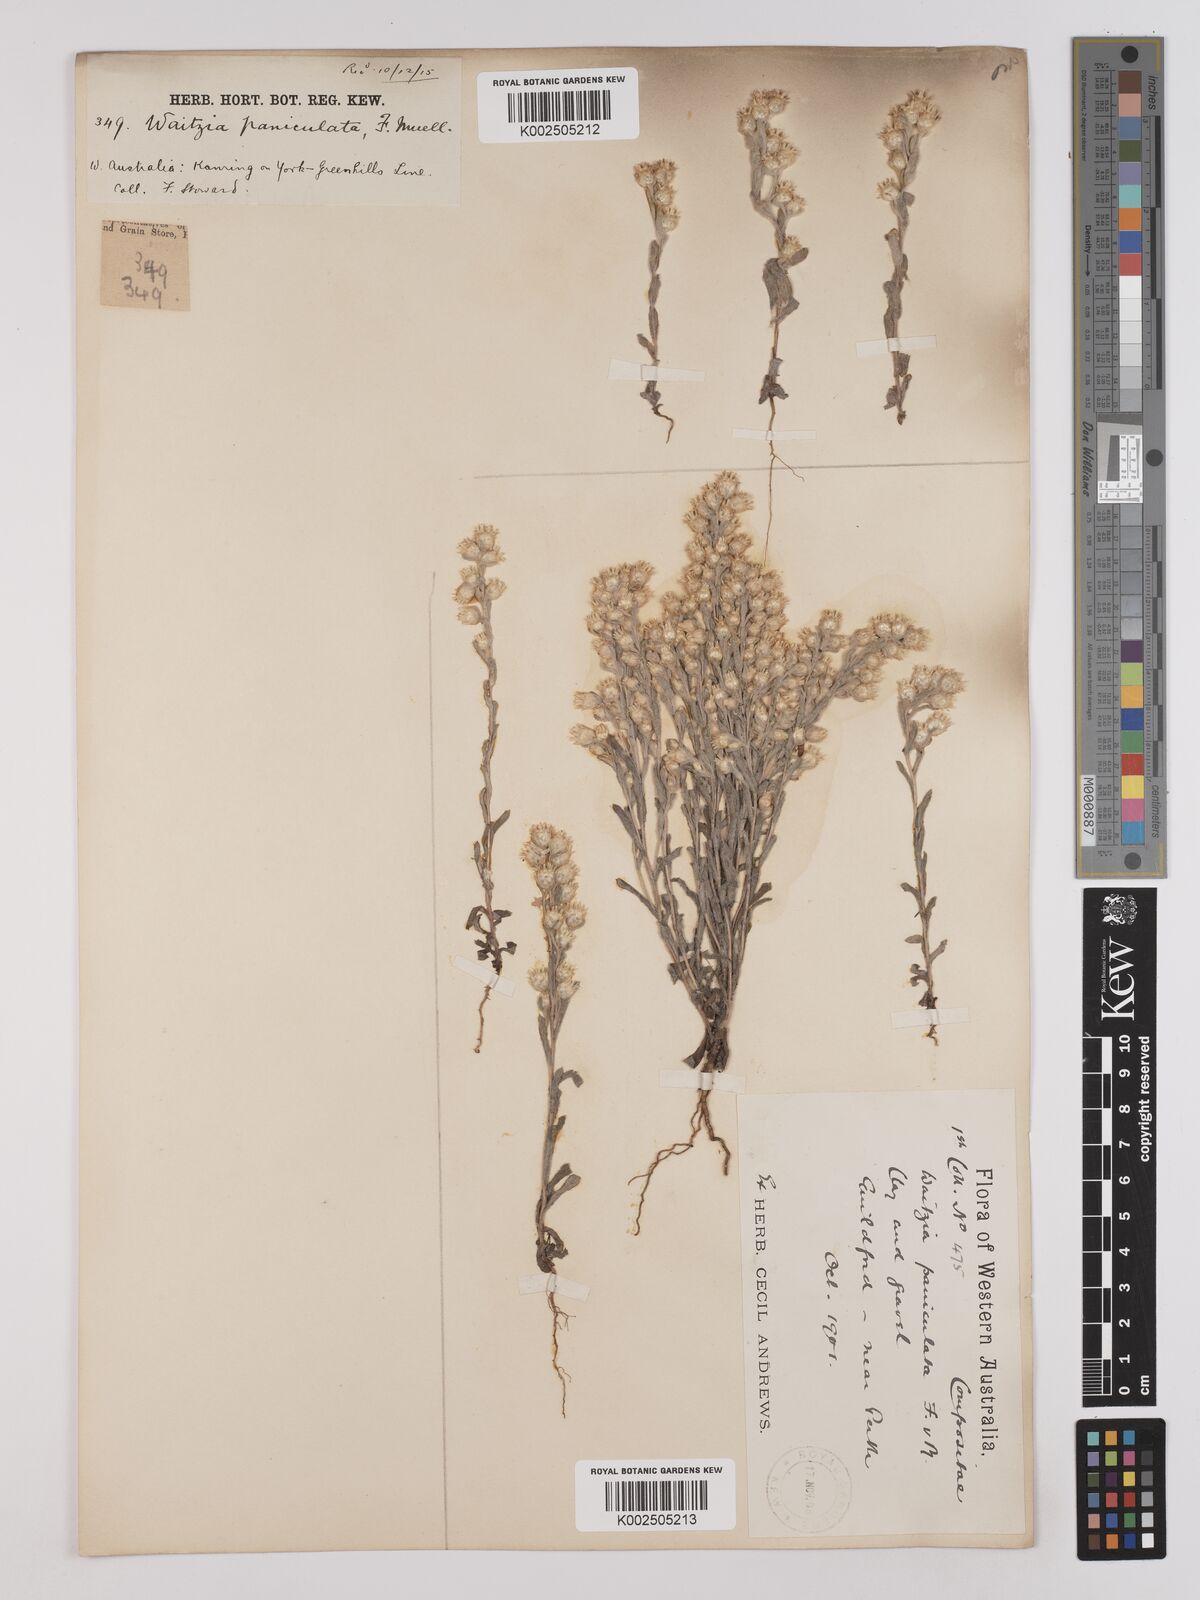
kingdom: Plantae
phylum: Tracheophyta
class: Magnoliopsida
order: Asterales
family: Asteraceae
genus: Pterochaeta
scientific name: Pterochaeta paniculata
